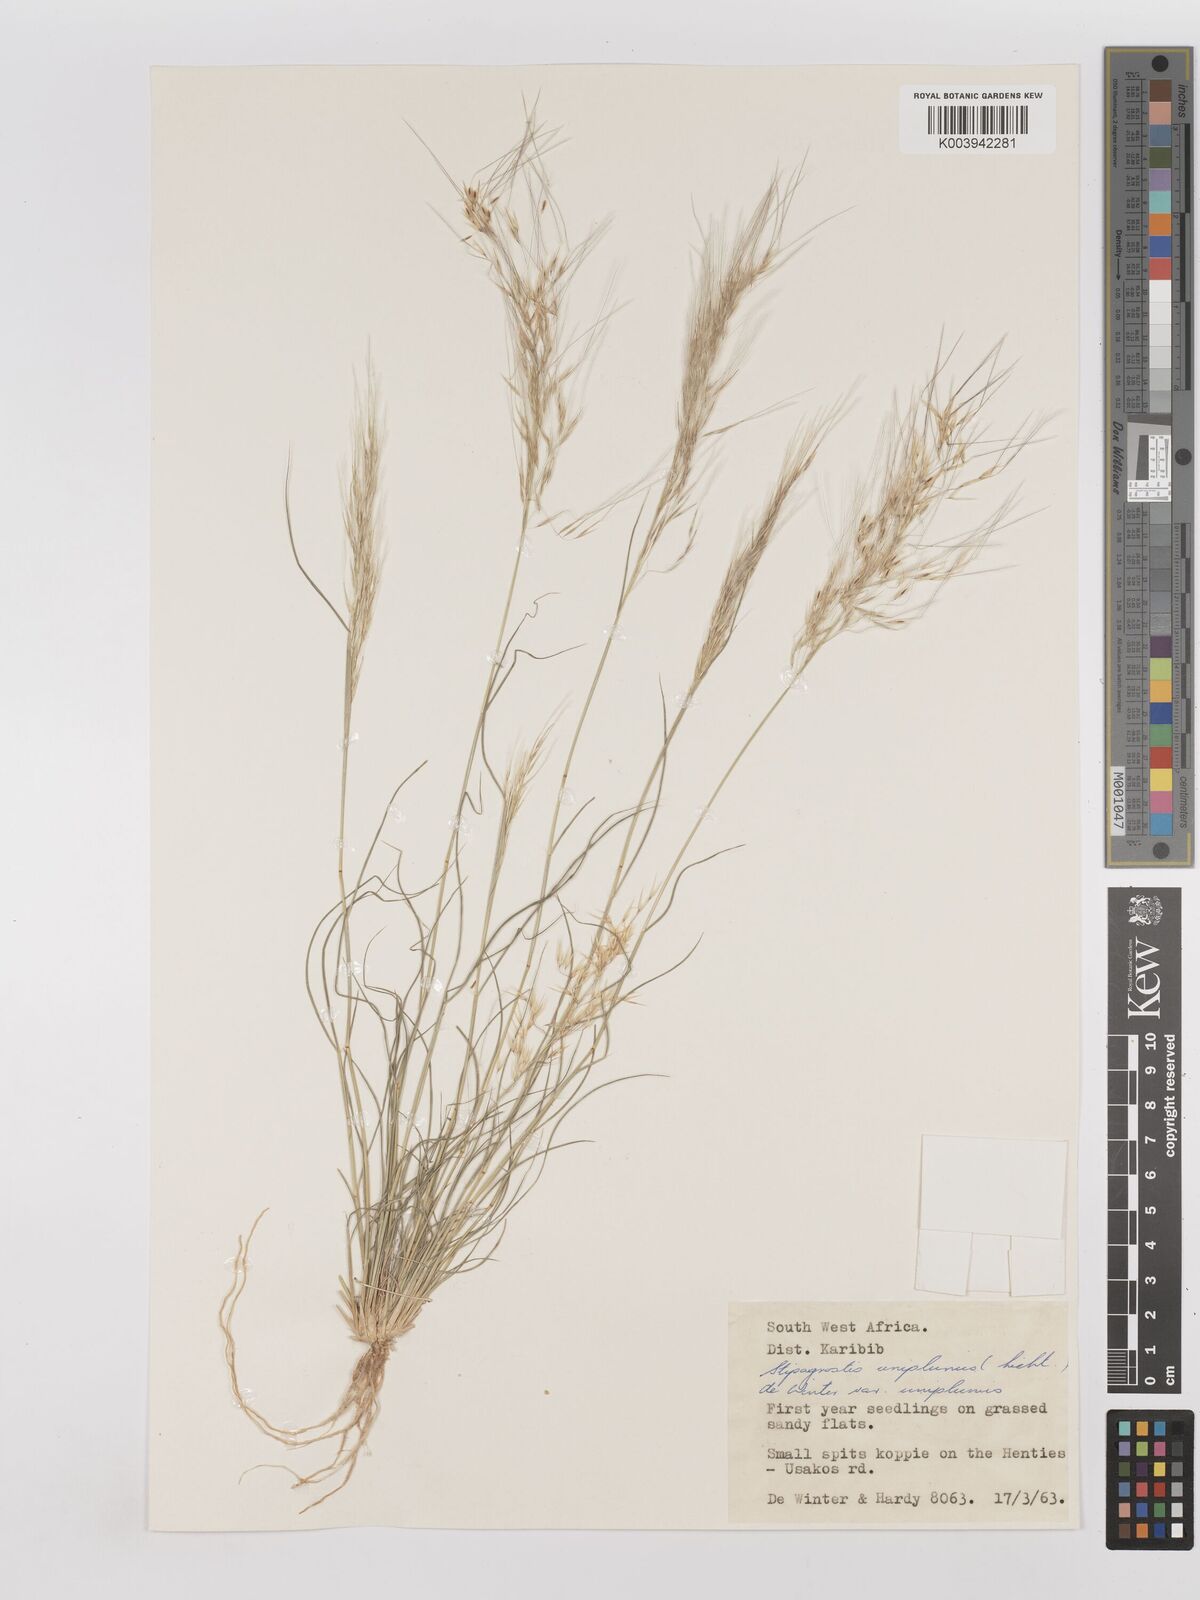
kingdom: Plantae
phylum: Tracheophyta
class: Liliopsida
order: Poales
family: Poaceae
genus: Stipagrostis
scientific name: Stipagrostis uniplumis
